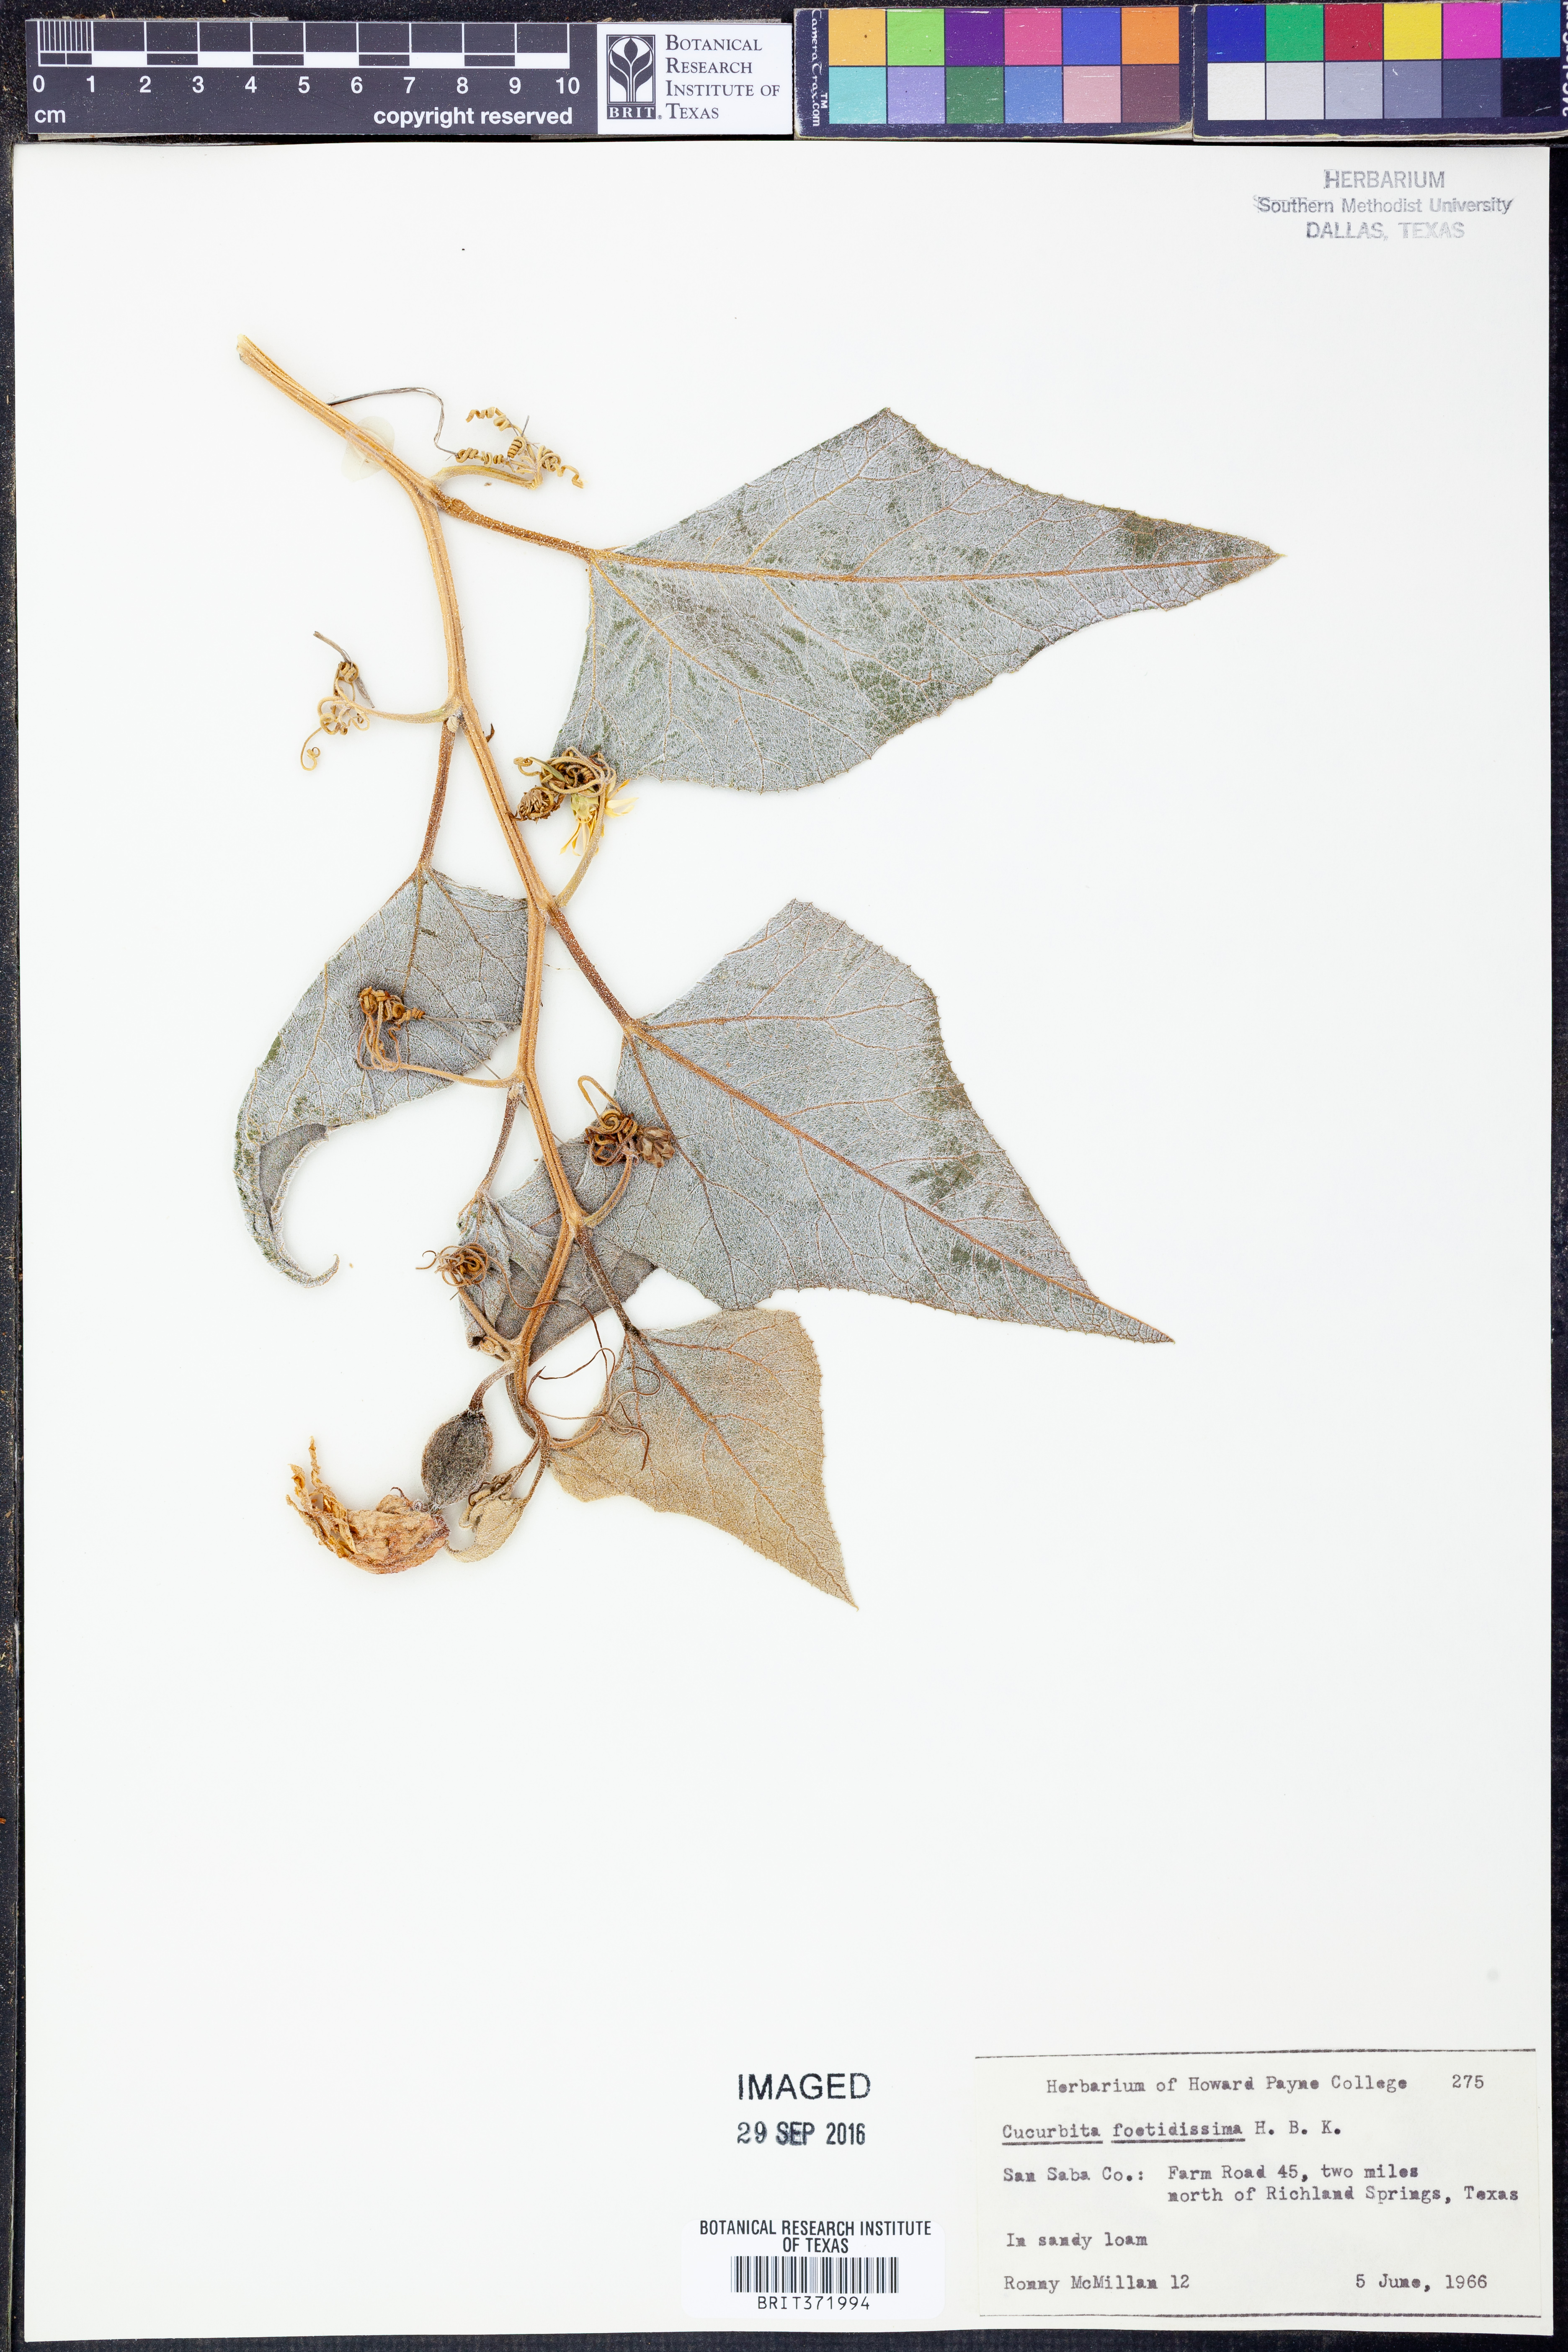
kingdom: Plantae
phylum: Tracheophyta
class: Magnoliopsida
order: Cucurbitales
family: Cucurbitaceae
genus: Cucurbita
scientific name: Cucurbita foetidissima
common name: Buffalo gourd
